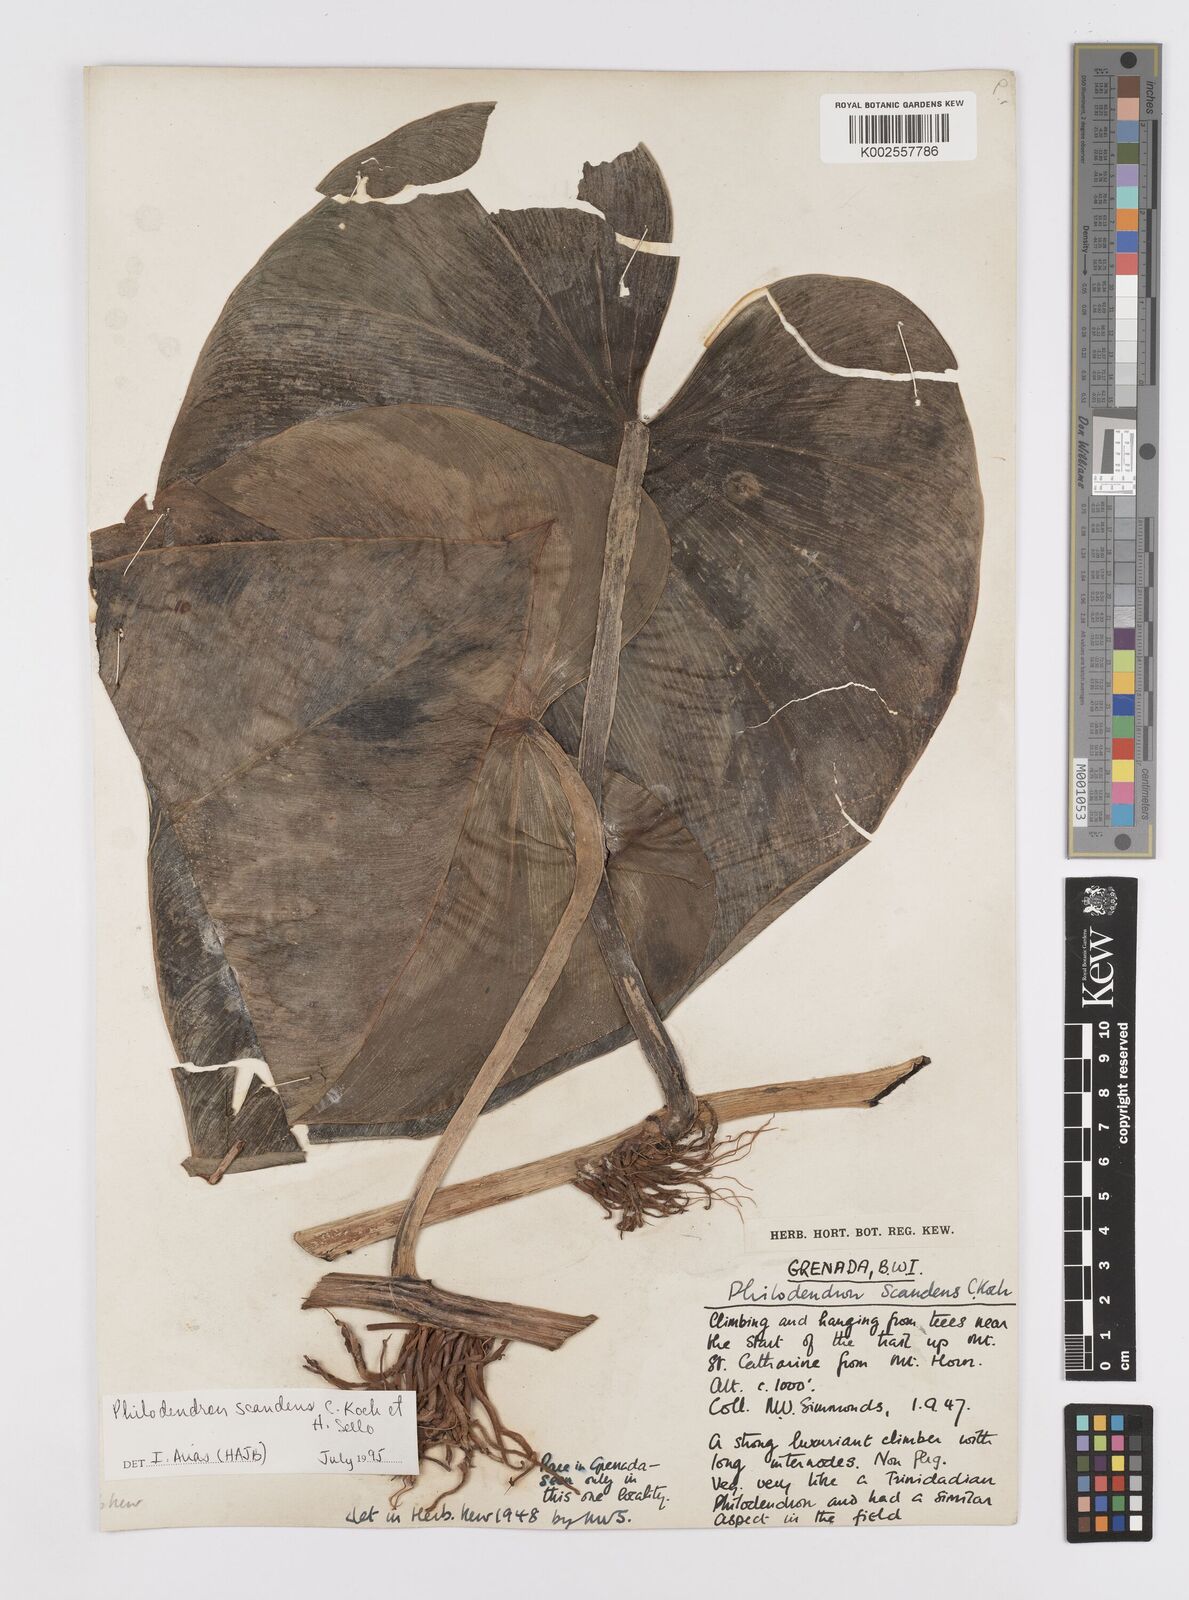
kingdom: Plantae
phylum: Tracheophyta
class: Liliopsida
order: Alismatales
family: Araceae
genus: Philodendron
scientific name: Philodendron hederaceum
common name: Vilevine
